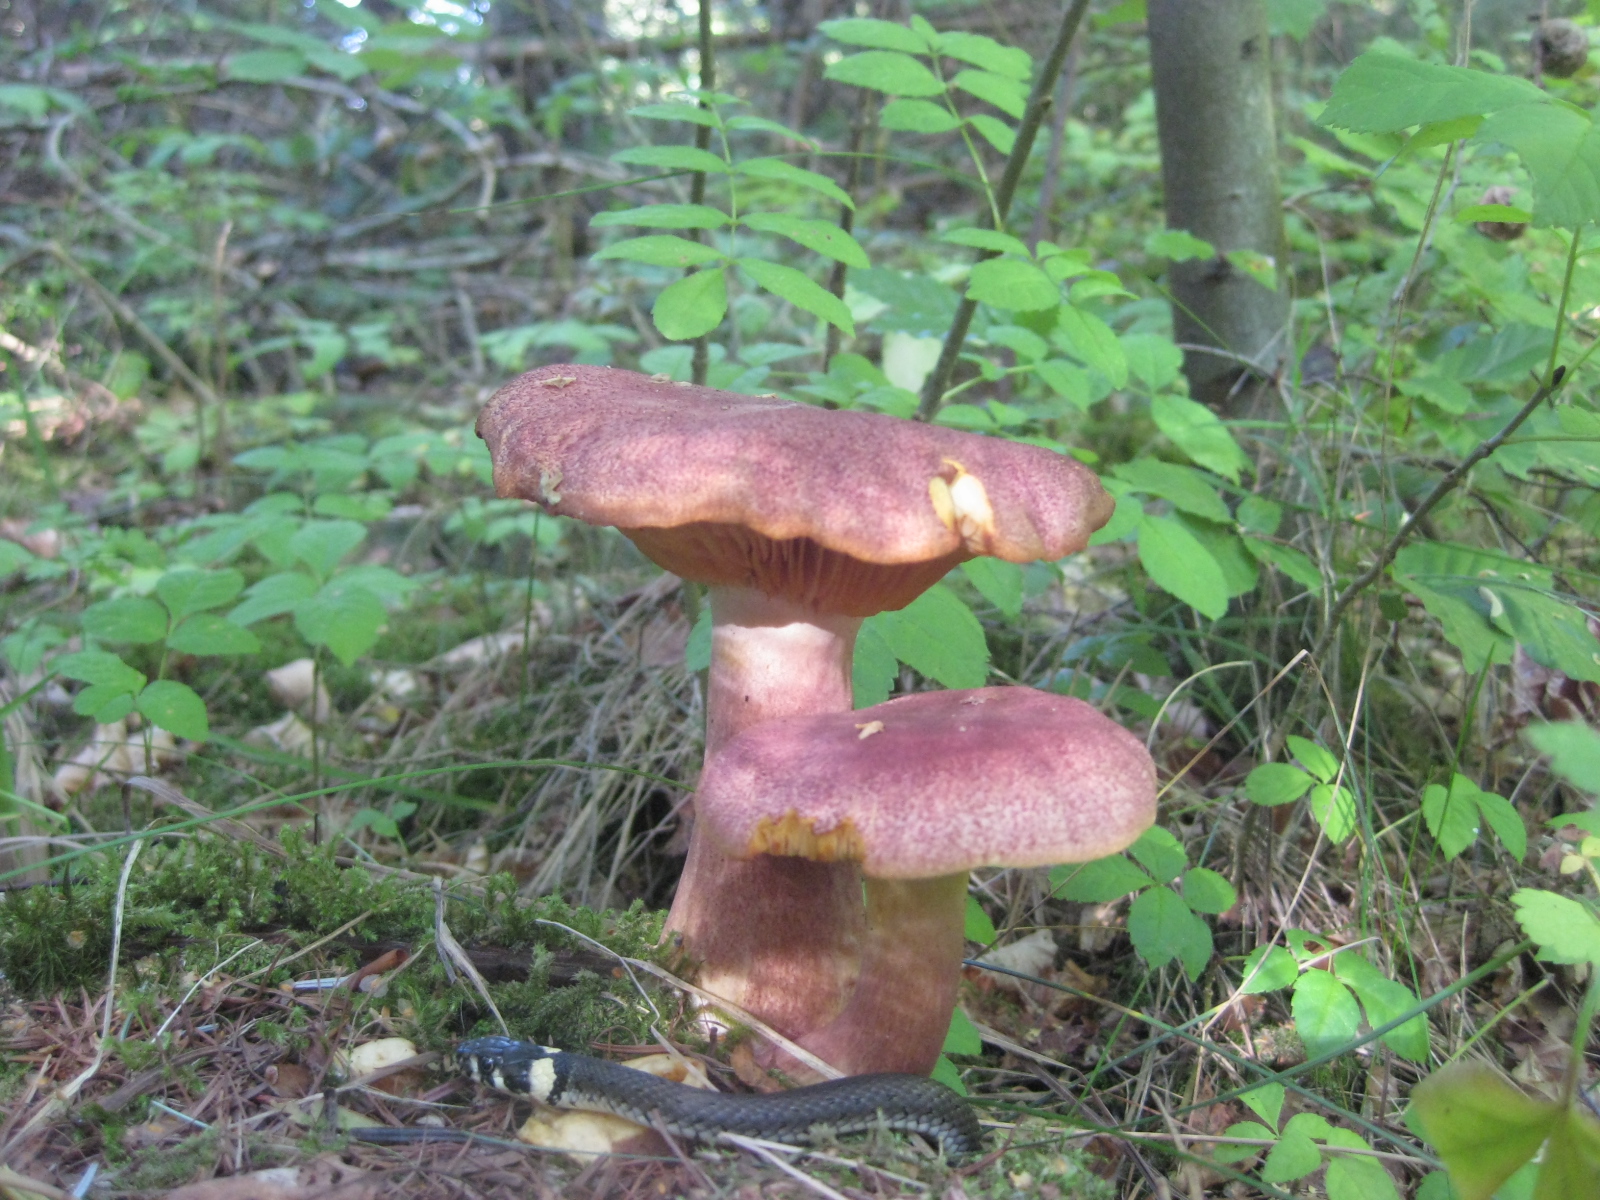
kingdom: Fungi
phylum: Basidiomycota
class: Agaricomycetes
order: Agaricales
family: Tricholomataceae
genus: Tricholomopsis
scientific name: Tricholomopsis rutilans
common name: purpur-væbnerhat
